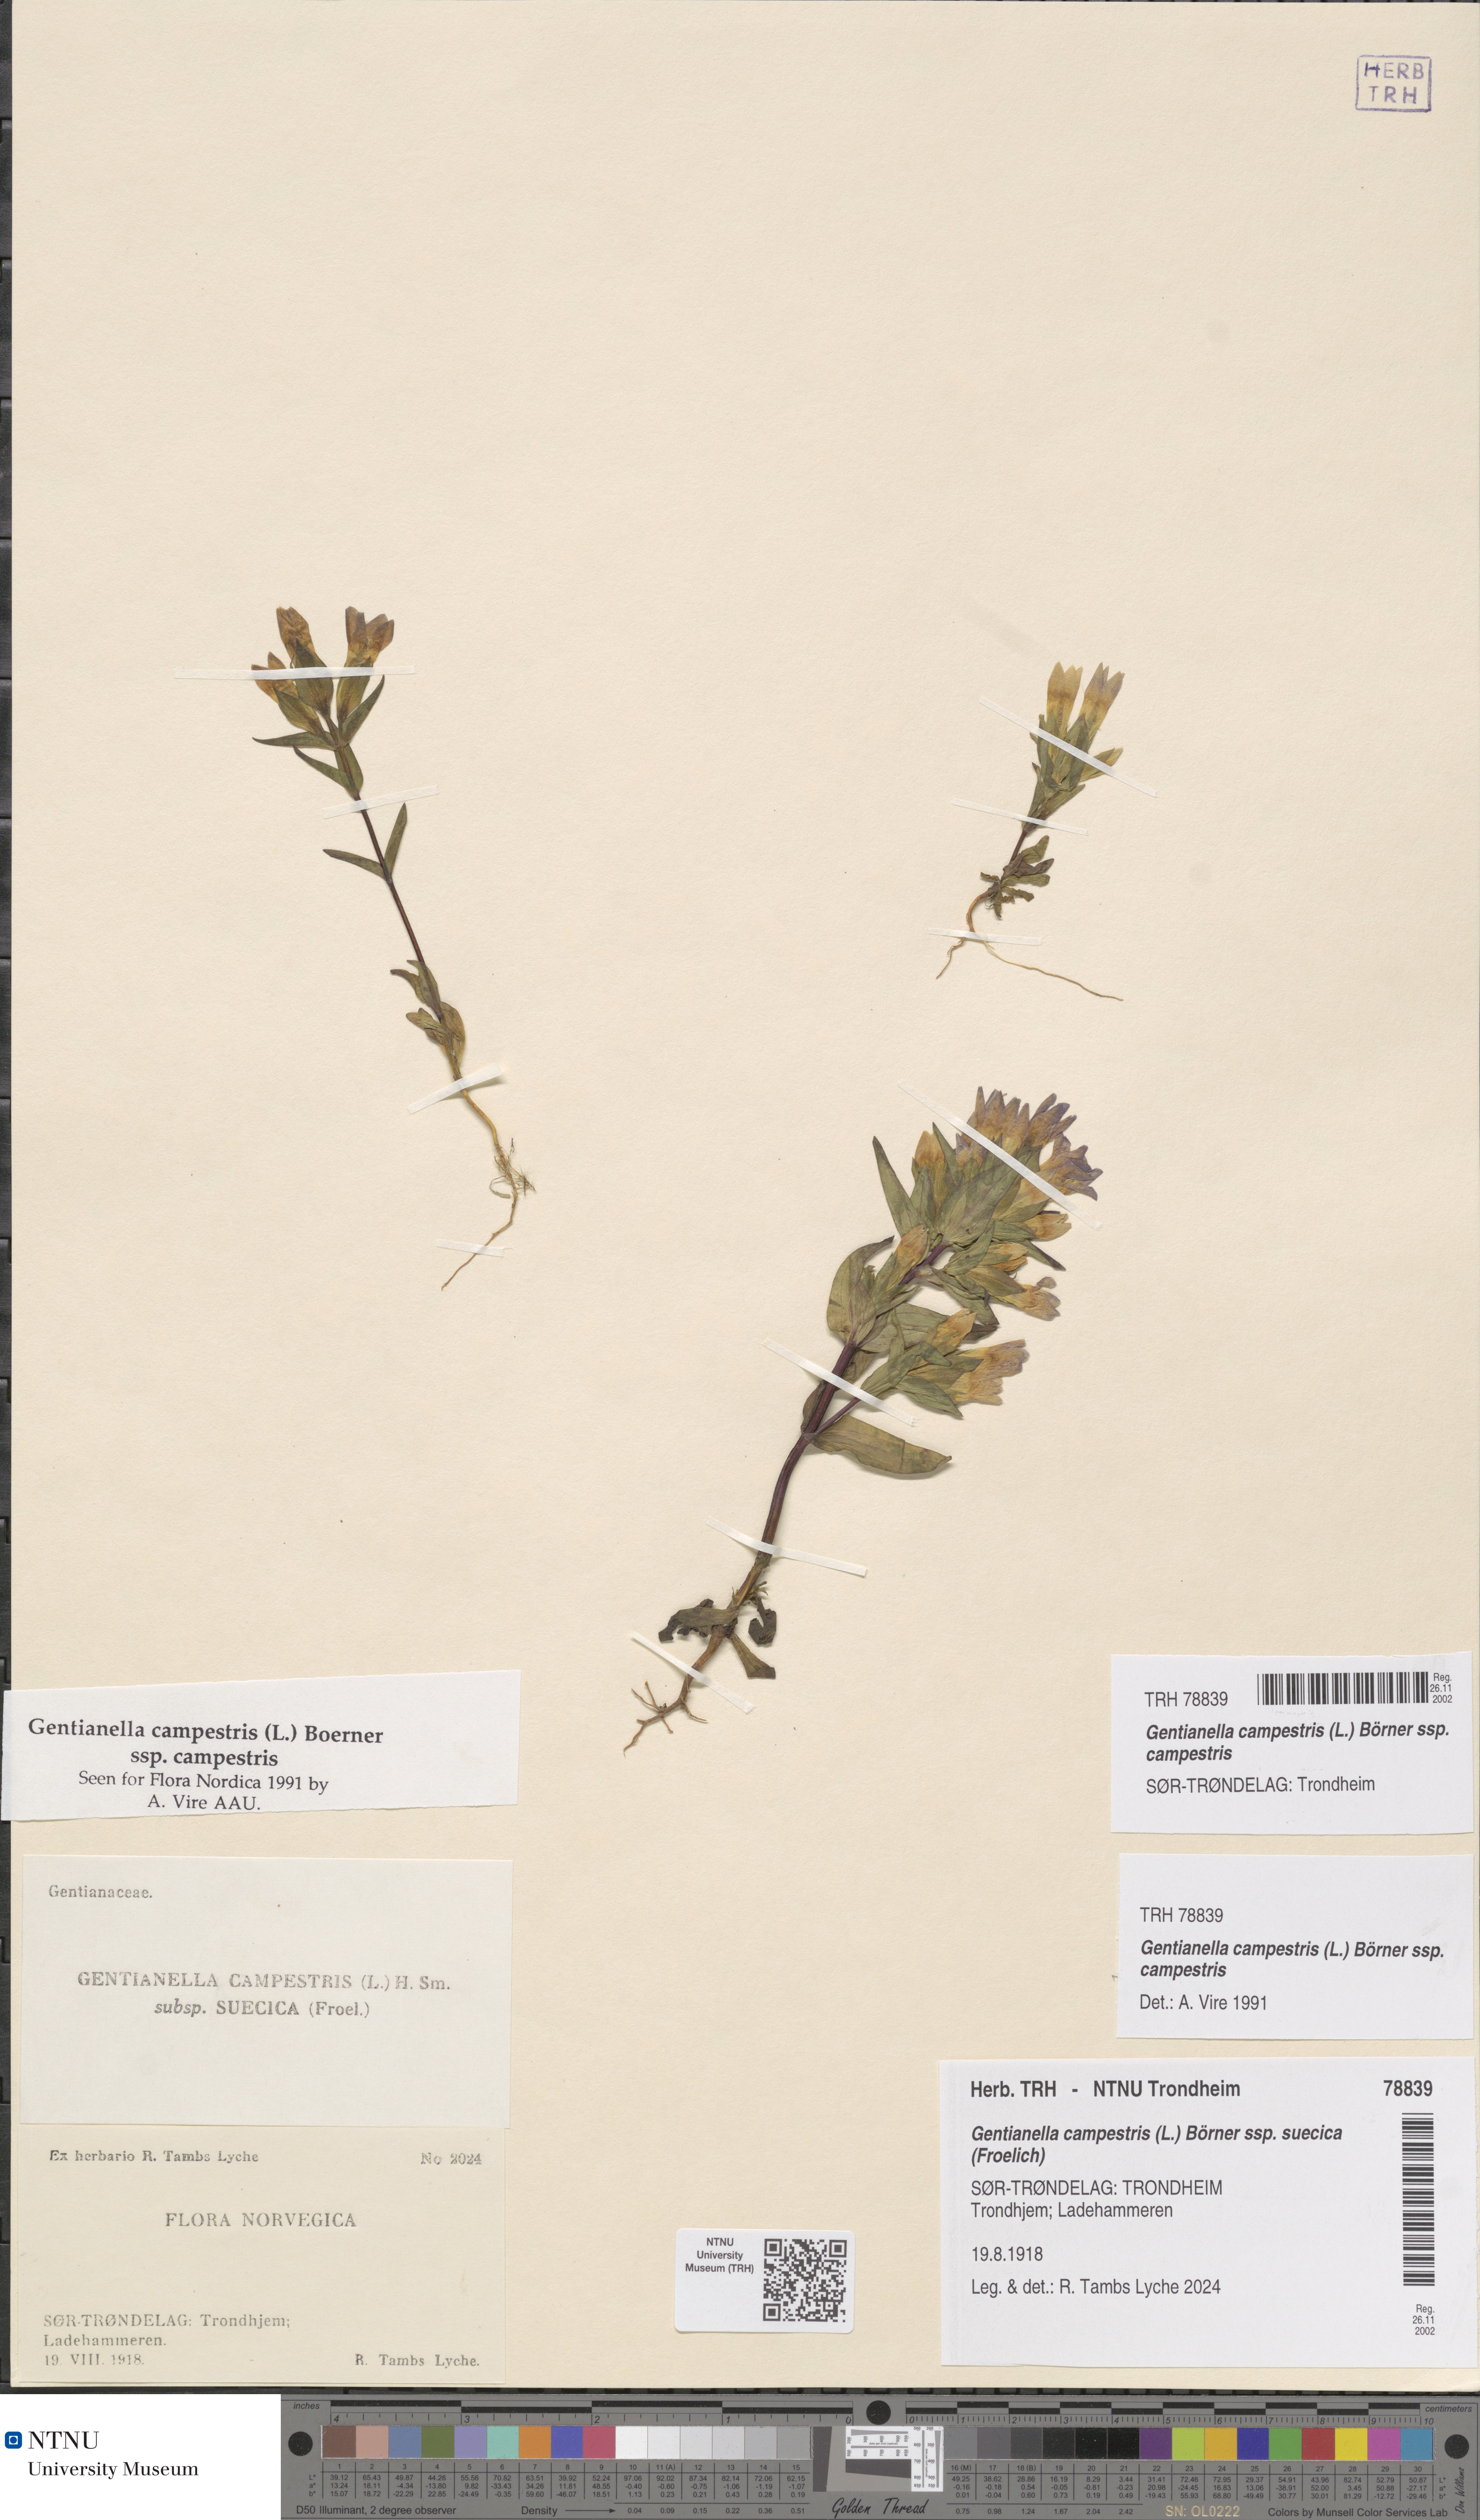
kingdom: Plantae
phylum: Tracheophyta
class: Magnoliopsida
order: Gentianales
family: Gentianaceae
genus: Gentianella
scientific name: Gentianella campestris
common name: Field gentian
